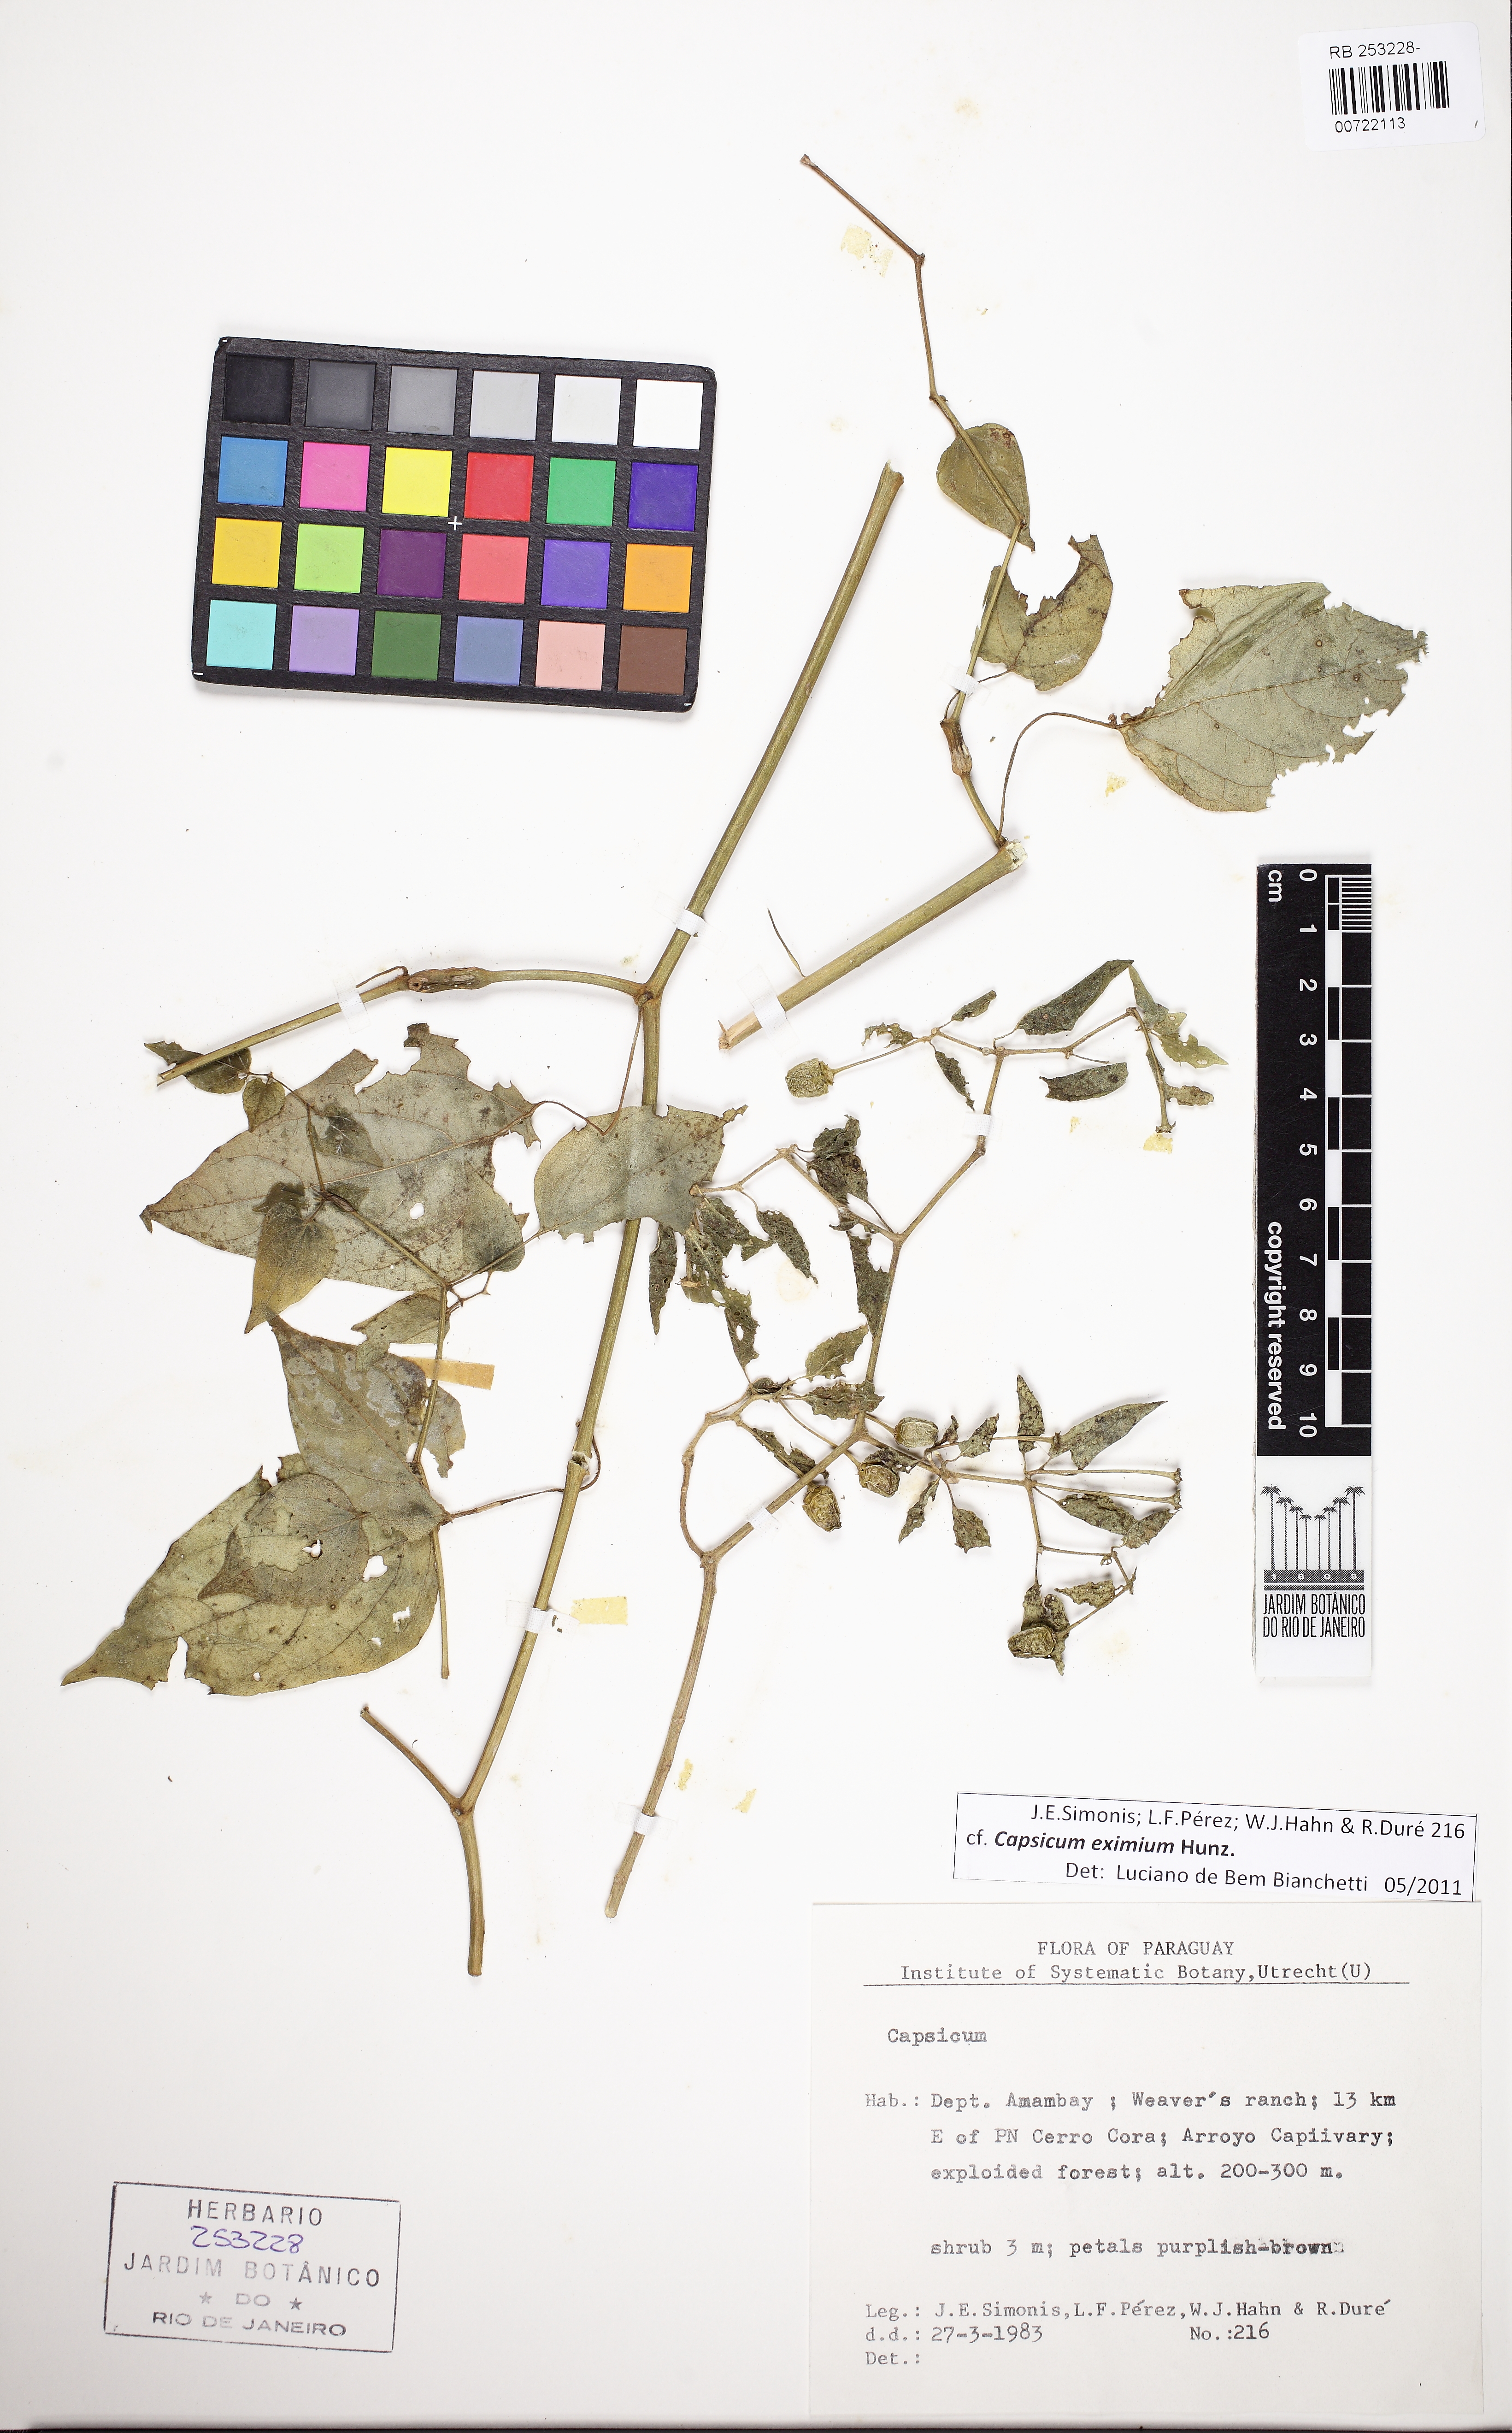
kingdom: Plantae
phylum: Tracheophyta
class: Magnoliopsida
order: Solanales
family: Solanaceae
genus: Capsicum
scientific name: Capsicum eximium
